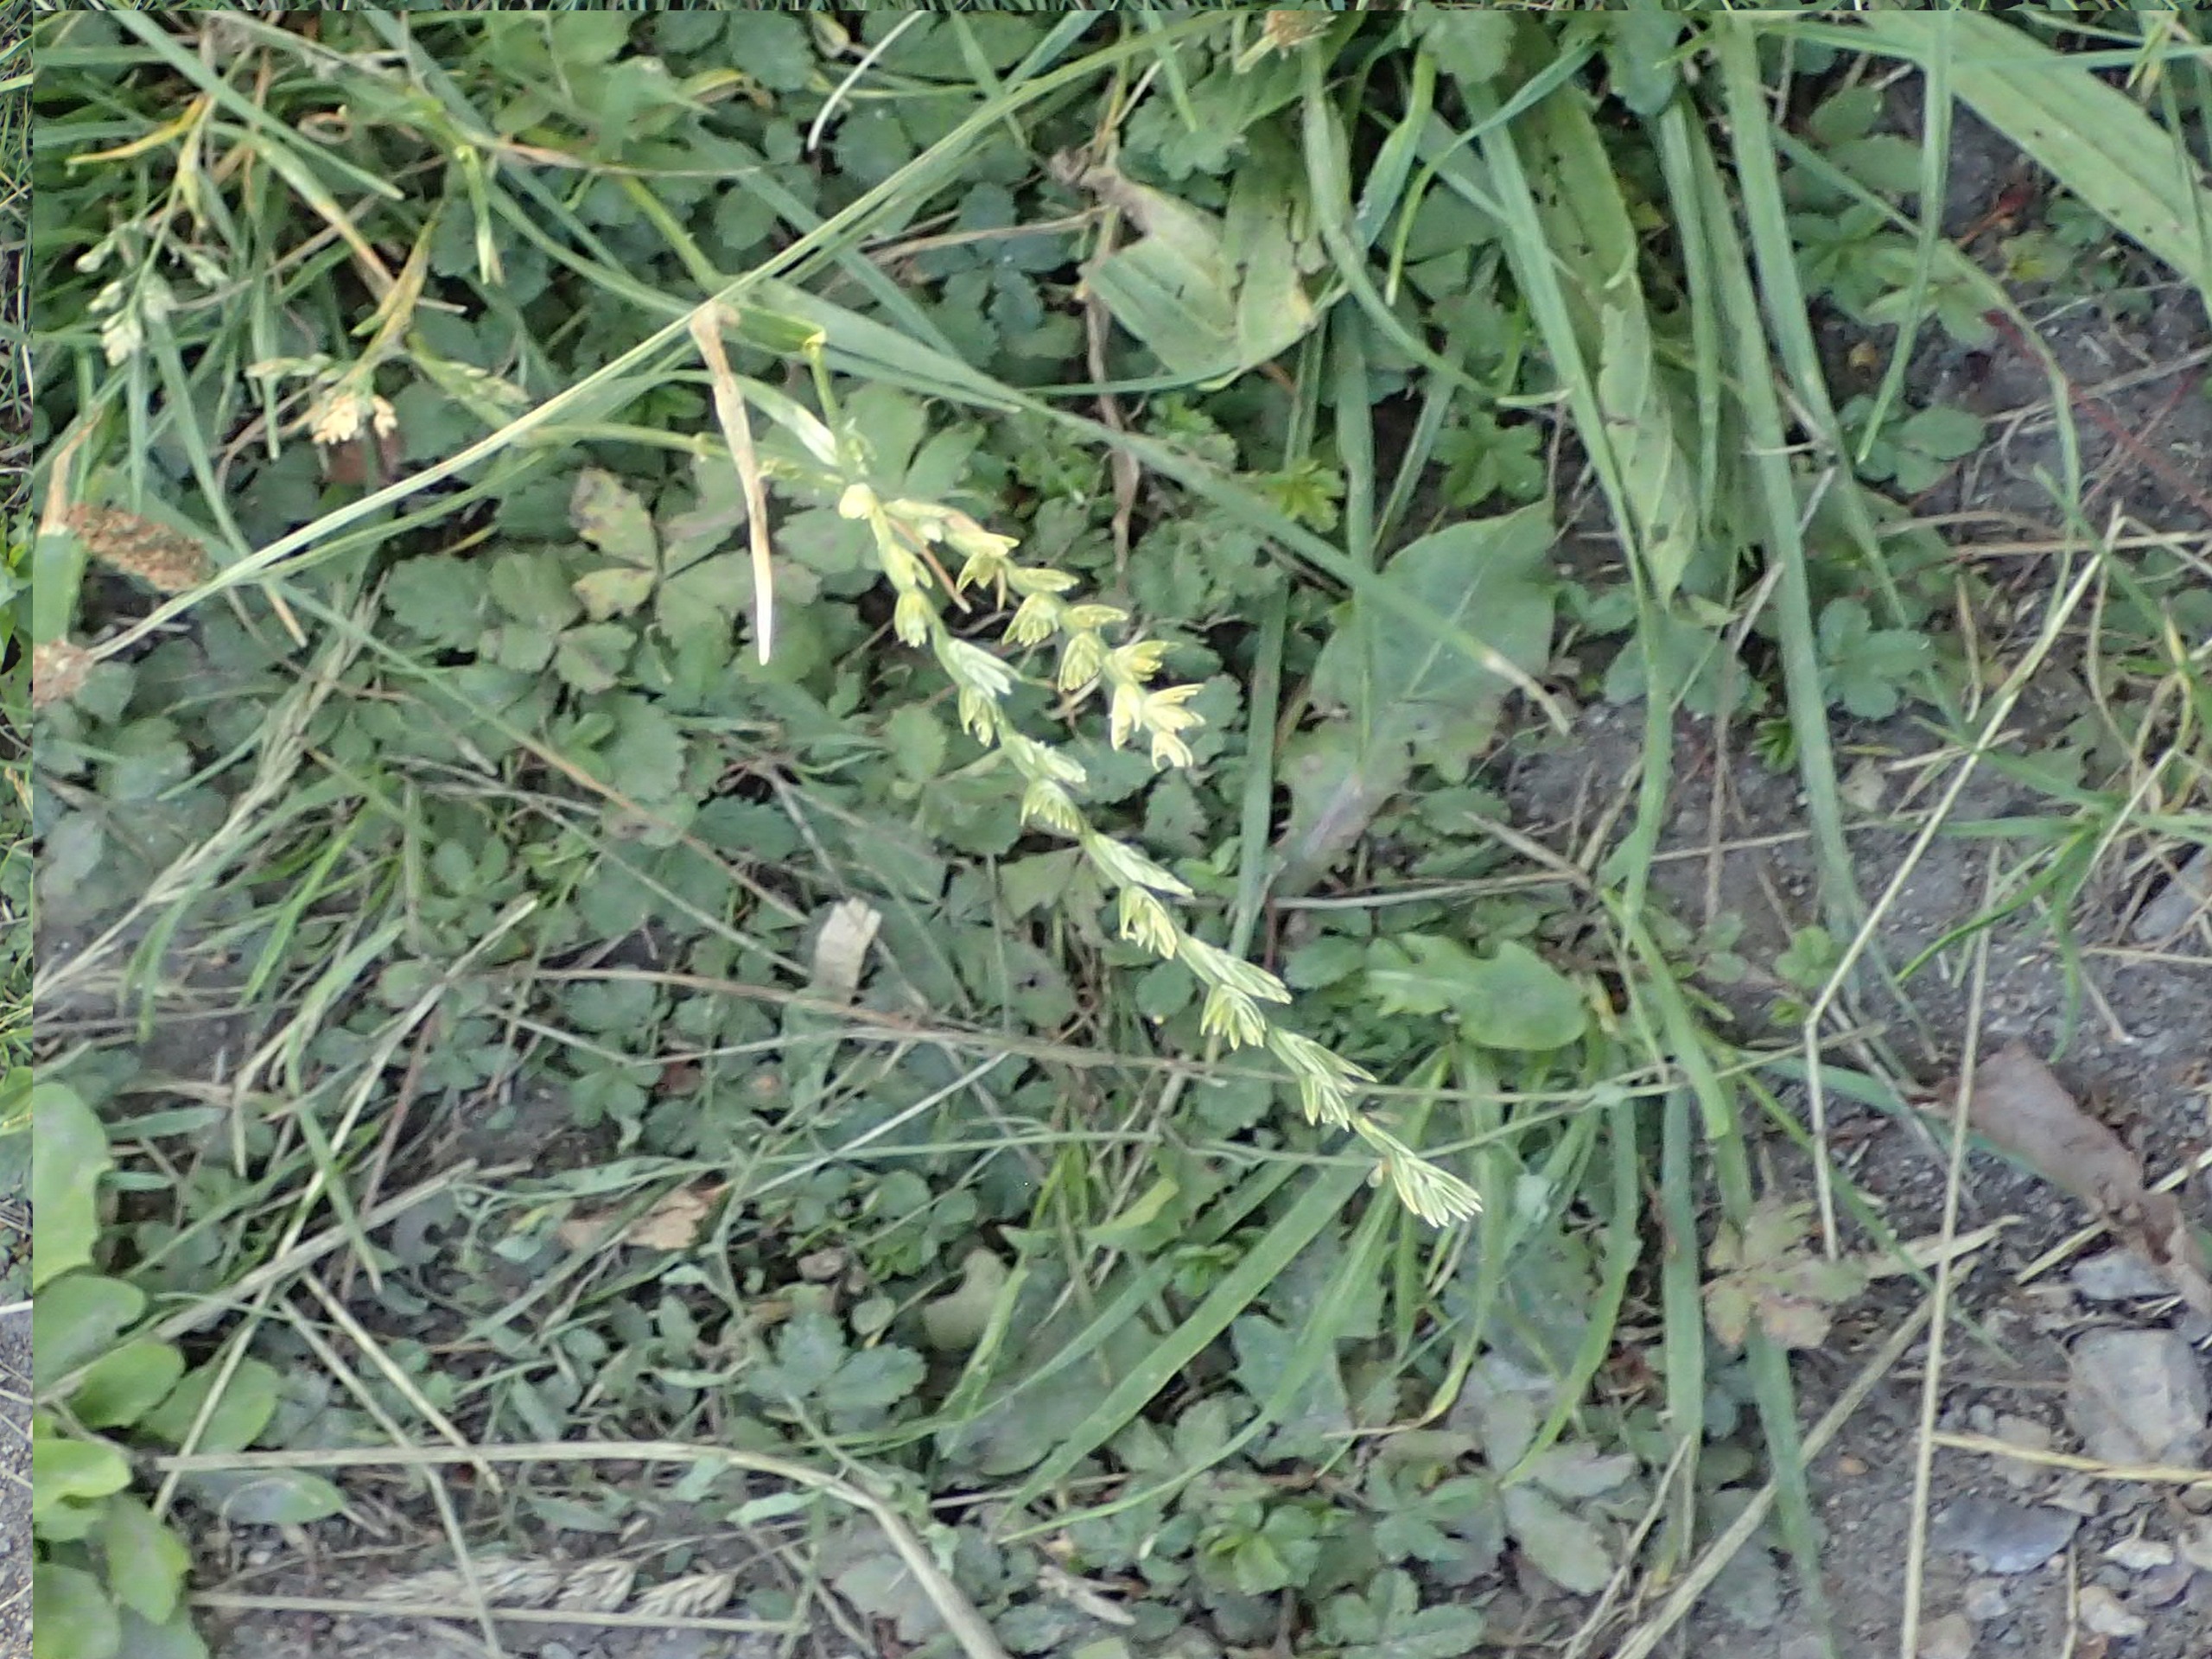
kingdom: Plantae
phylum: Tracheophyta
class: Liliopsida
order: Poales
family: Poaceae
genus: Lolium
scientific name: Lolium perenne
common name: Almindelig rajgræs
